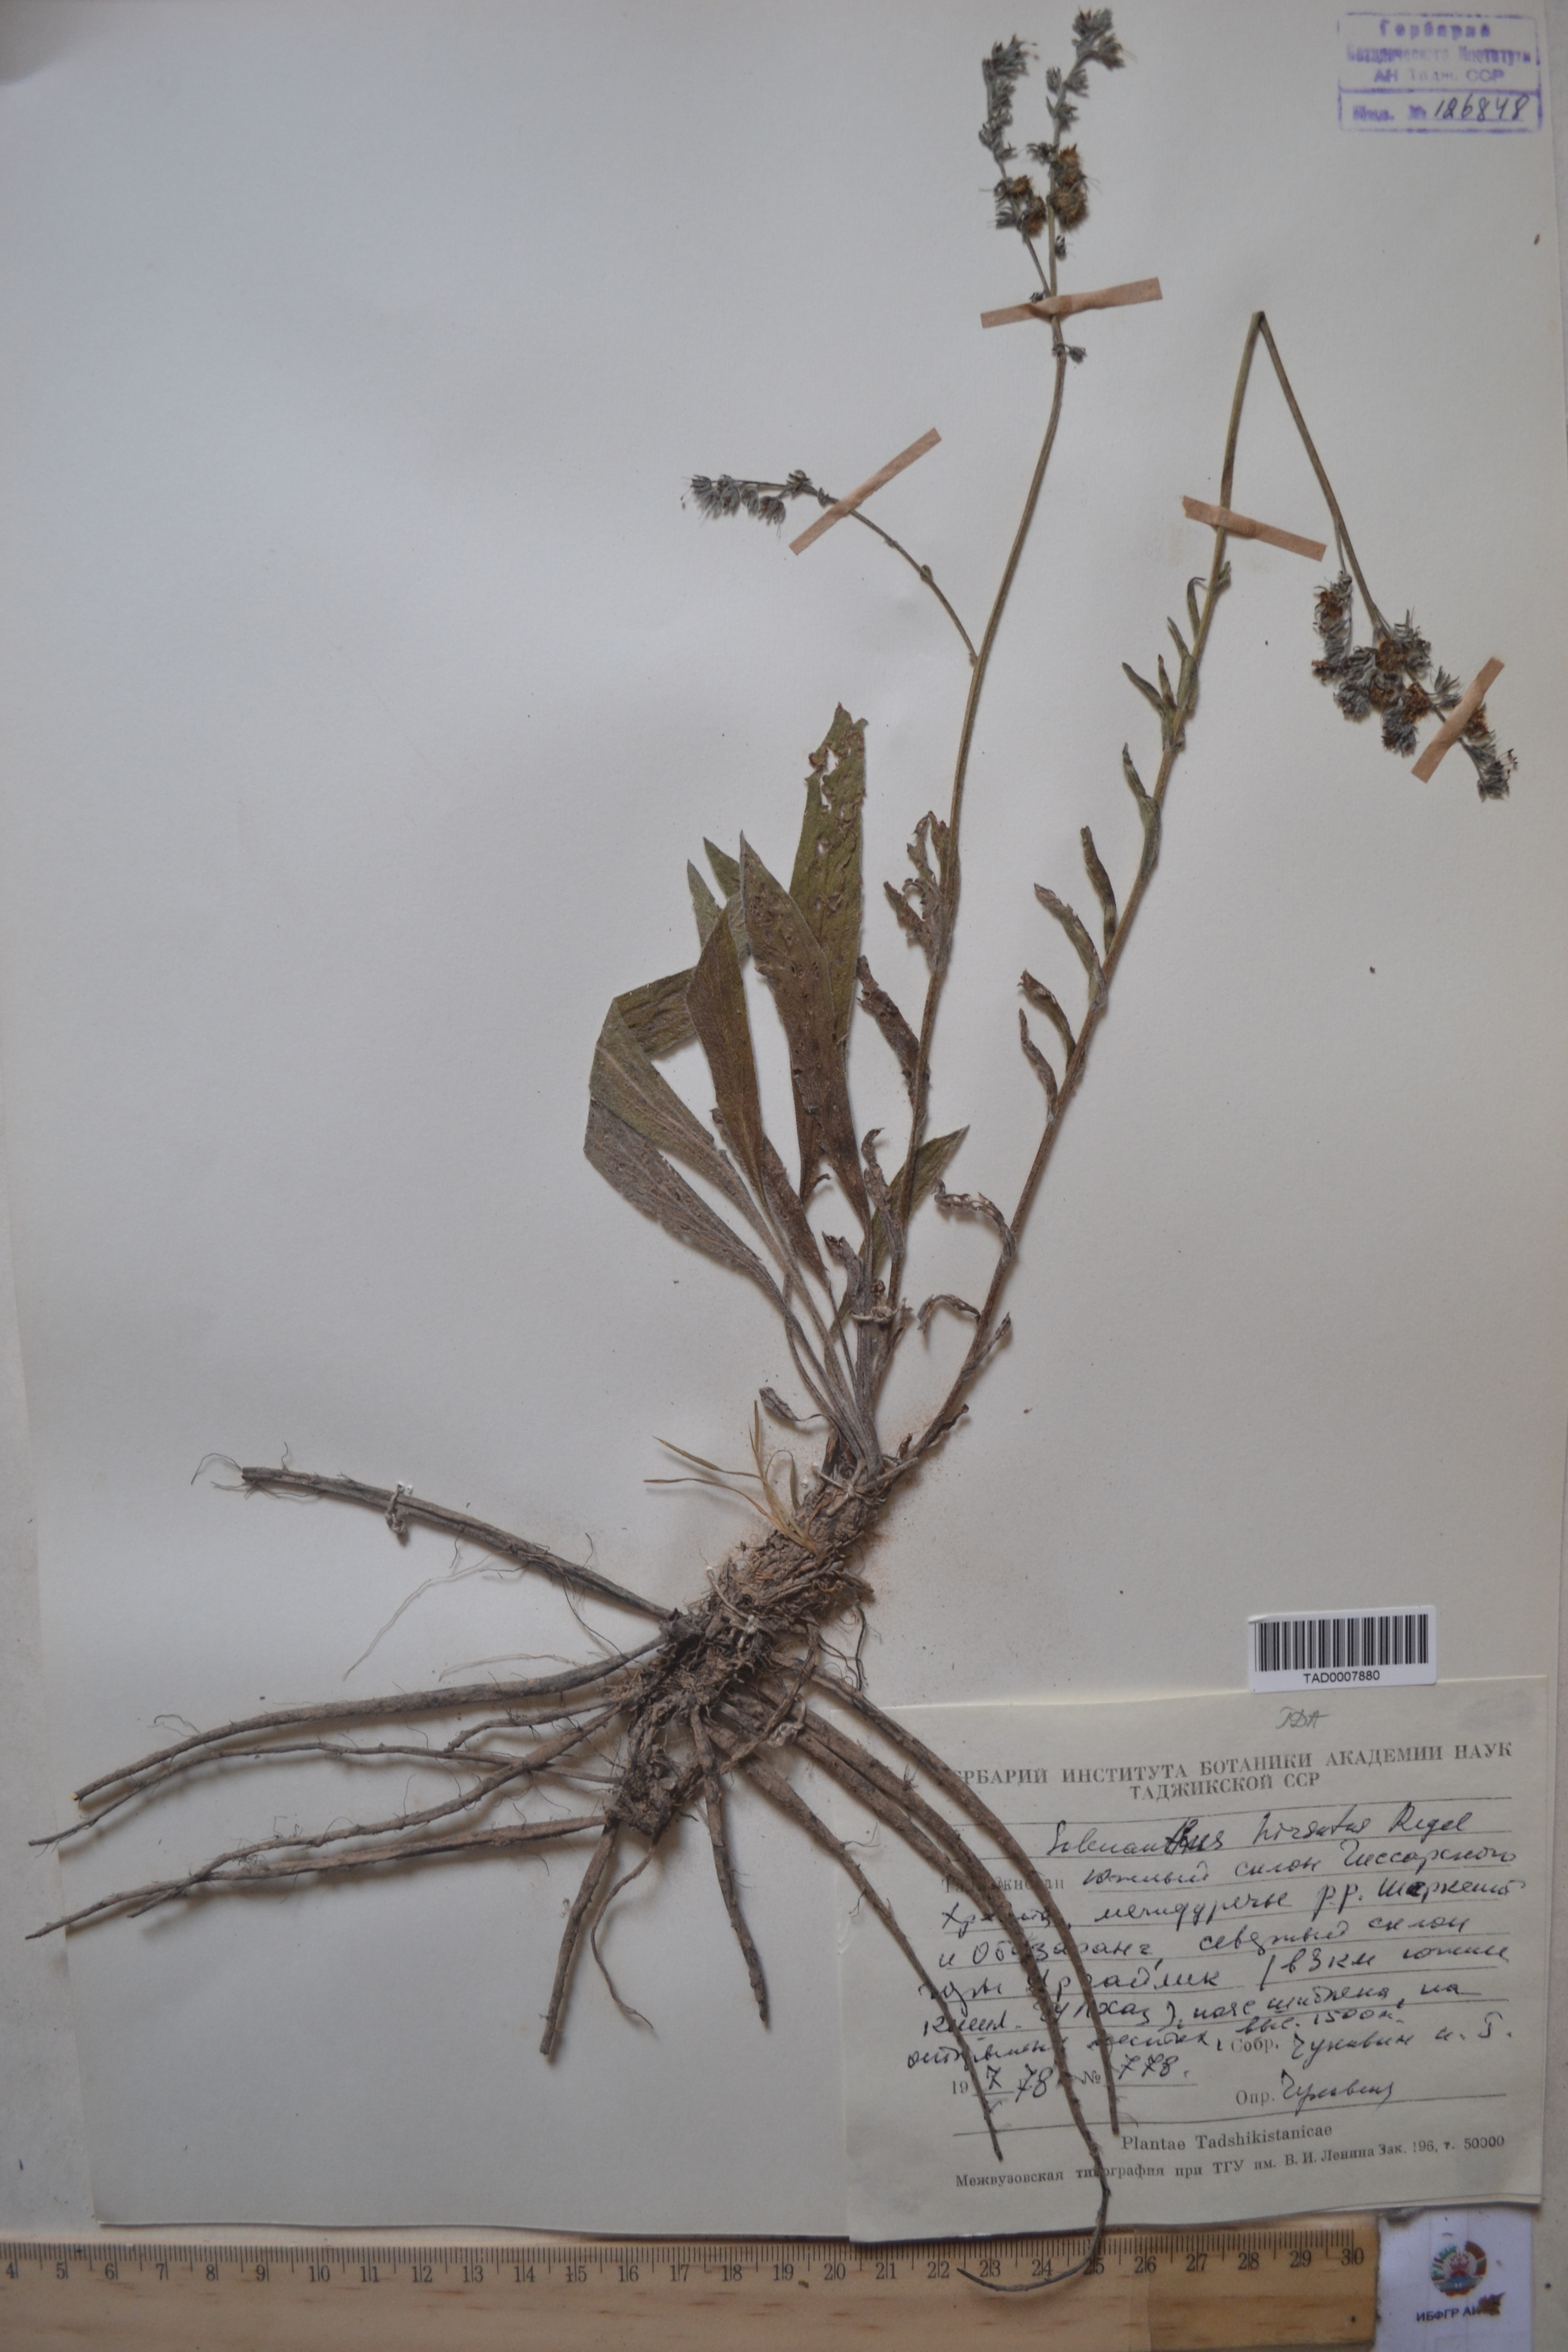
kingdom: Plantae
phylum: Tracheophyta
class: Magnoliopsida
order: Boraginales
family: Boraginaceae
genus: Solenanthus
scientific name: Solenanthus hirsutus
